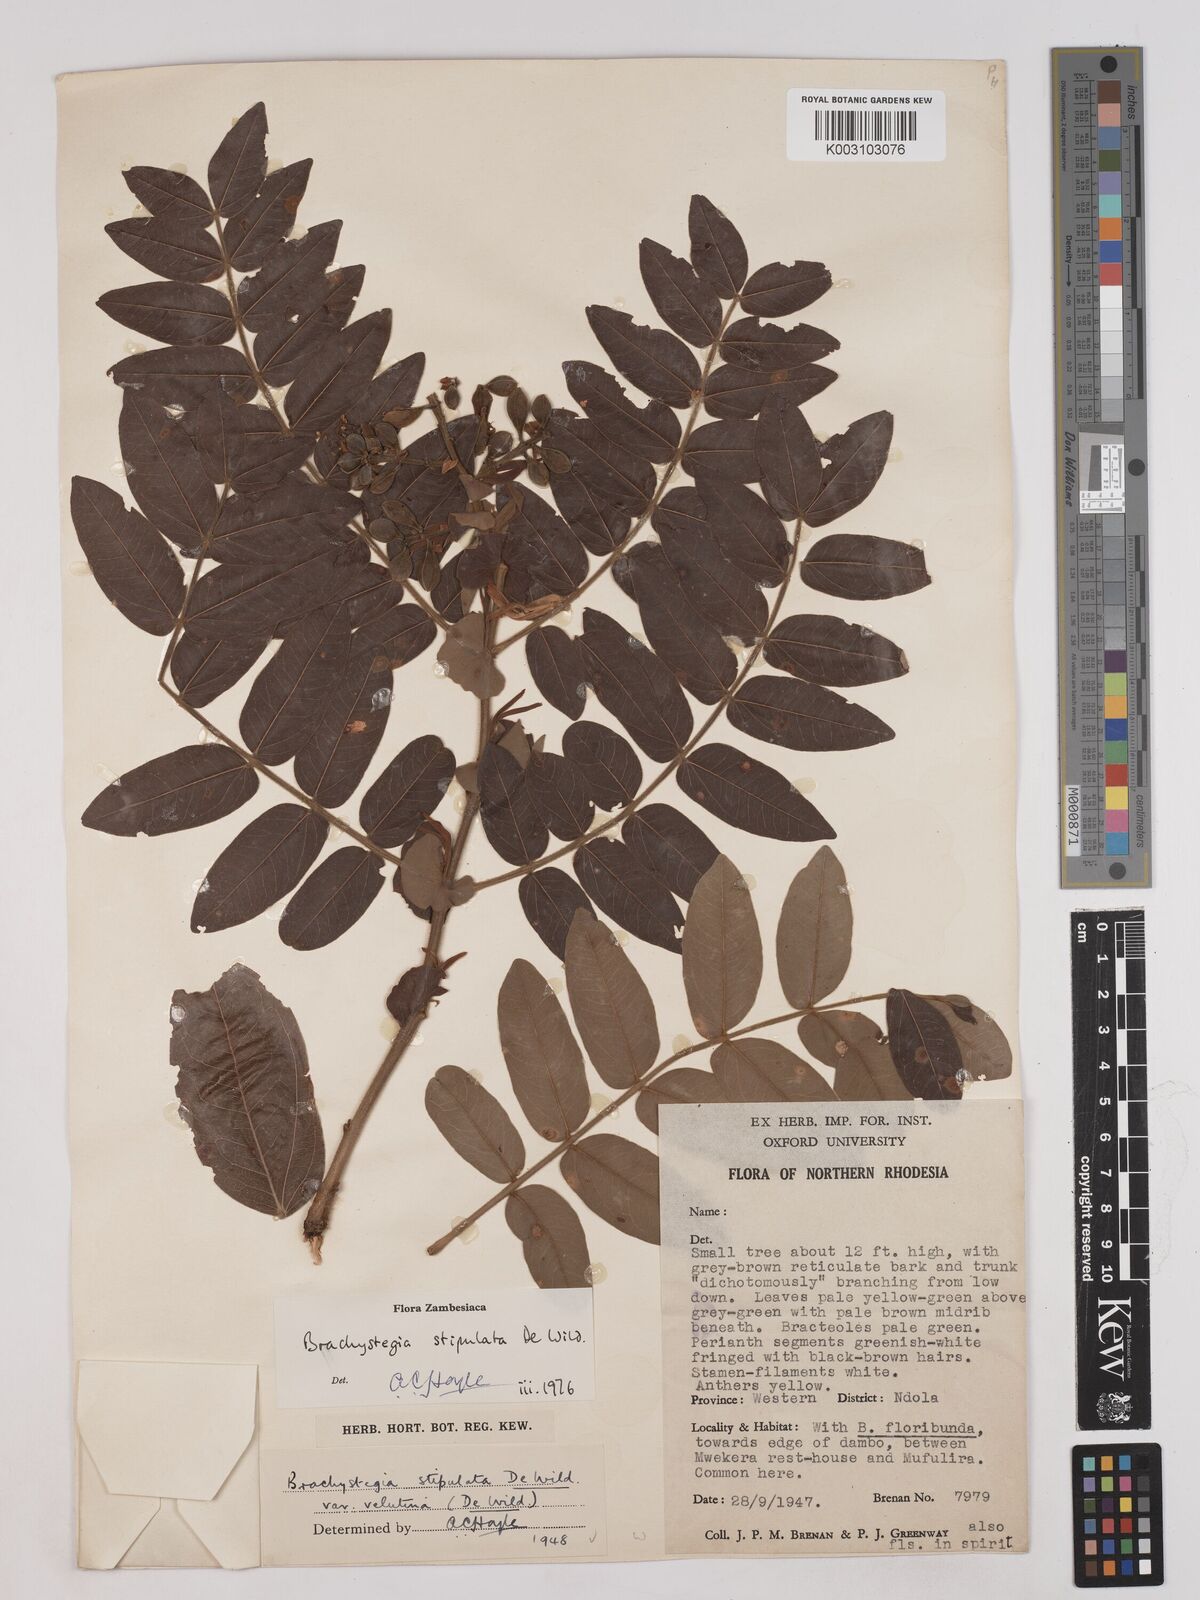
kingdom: Plantae
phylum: Tracheophyta
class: Magnoliopsida
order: Fabales
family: Fabaceae
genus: Brachystegia
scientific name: Brachystegia stipulata
